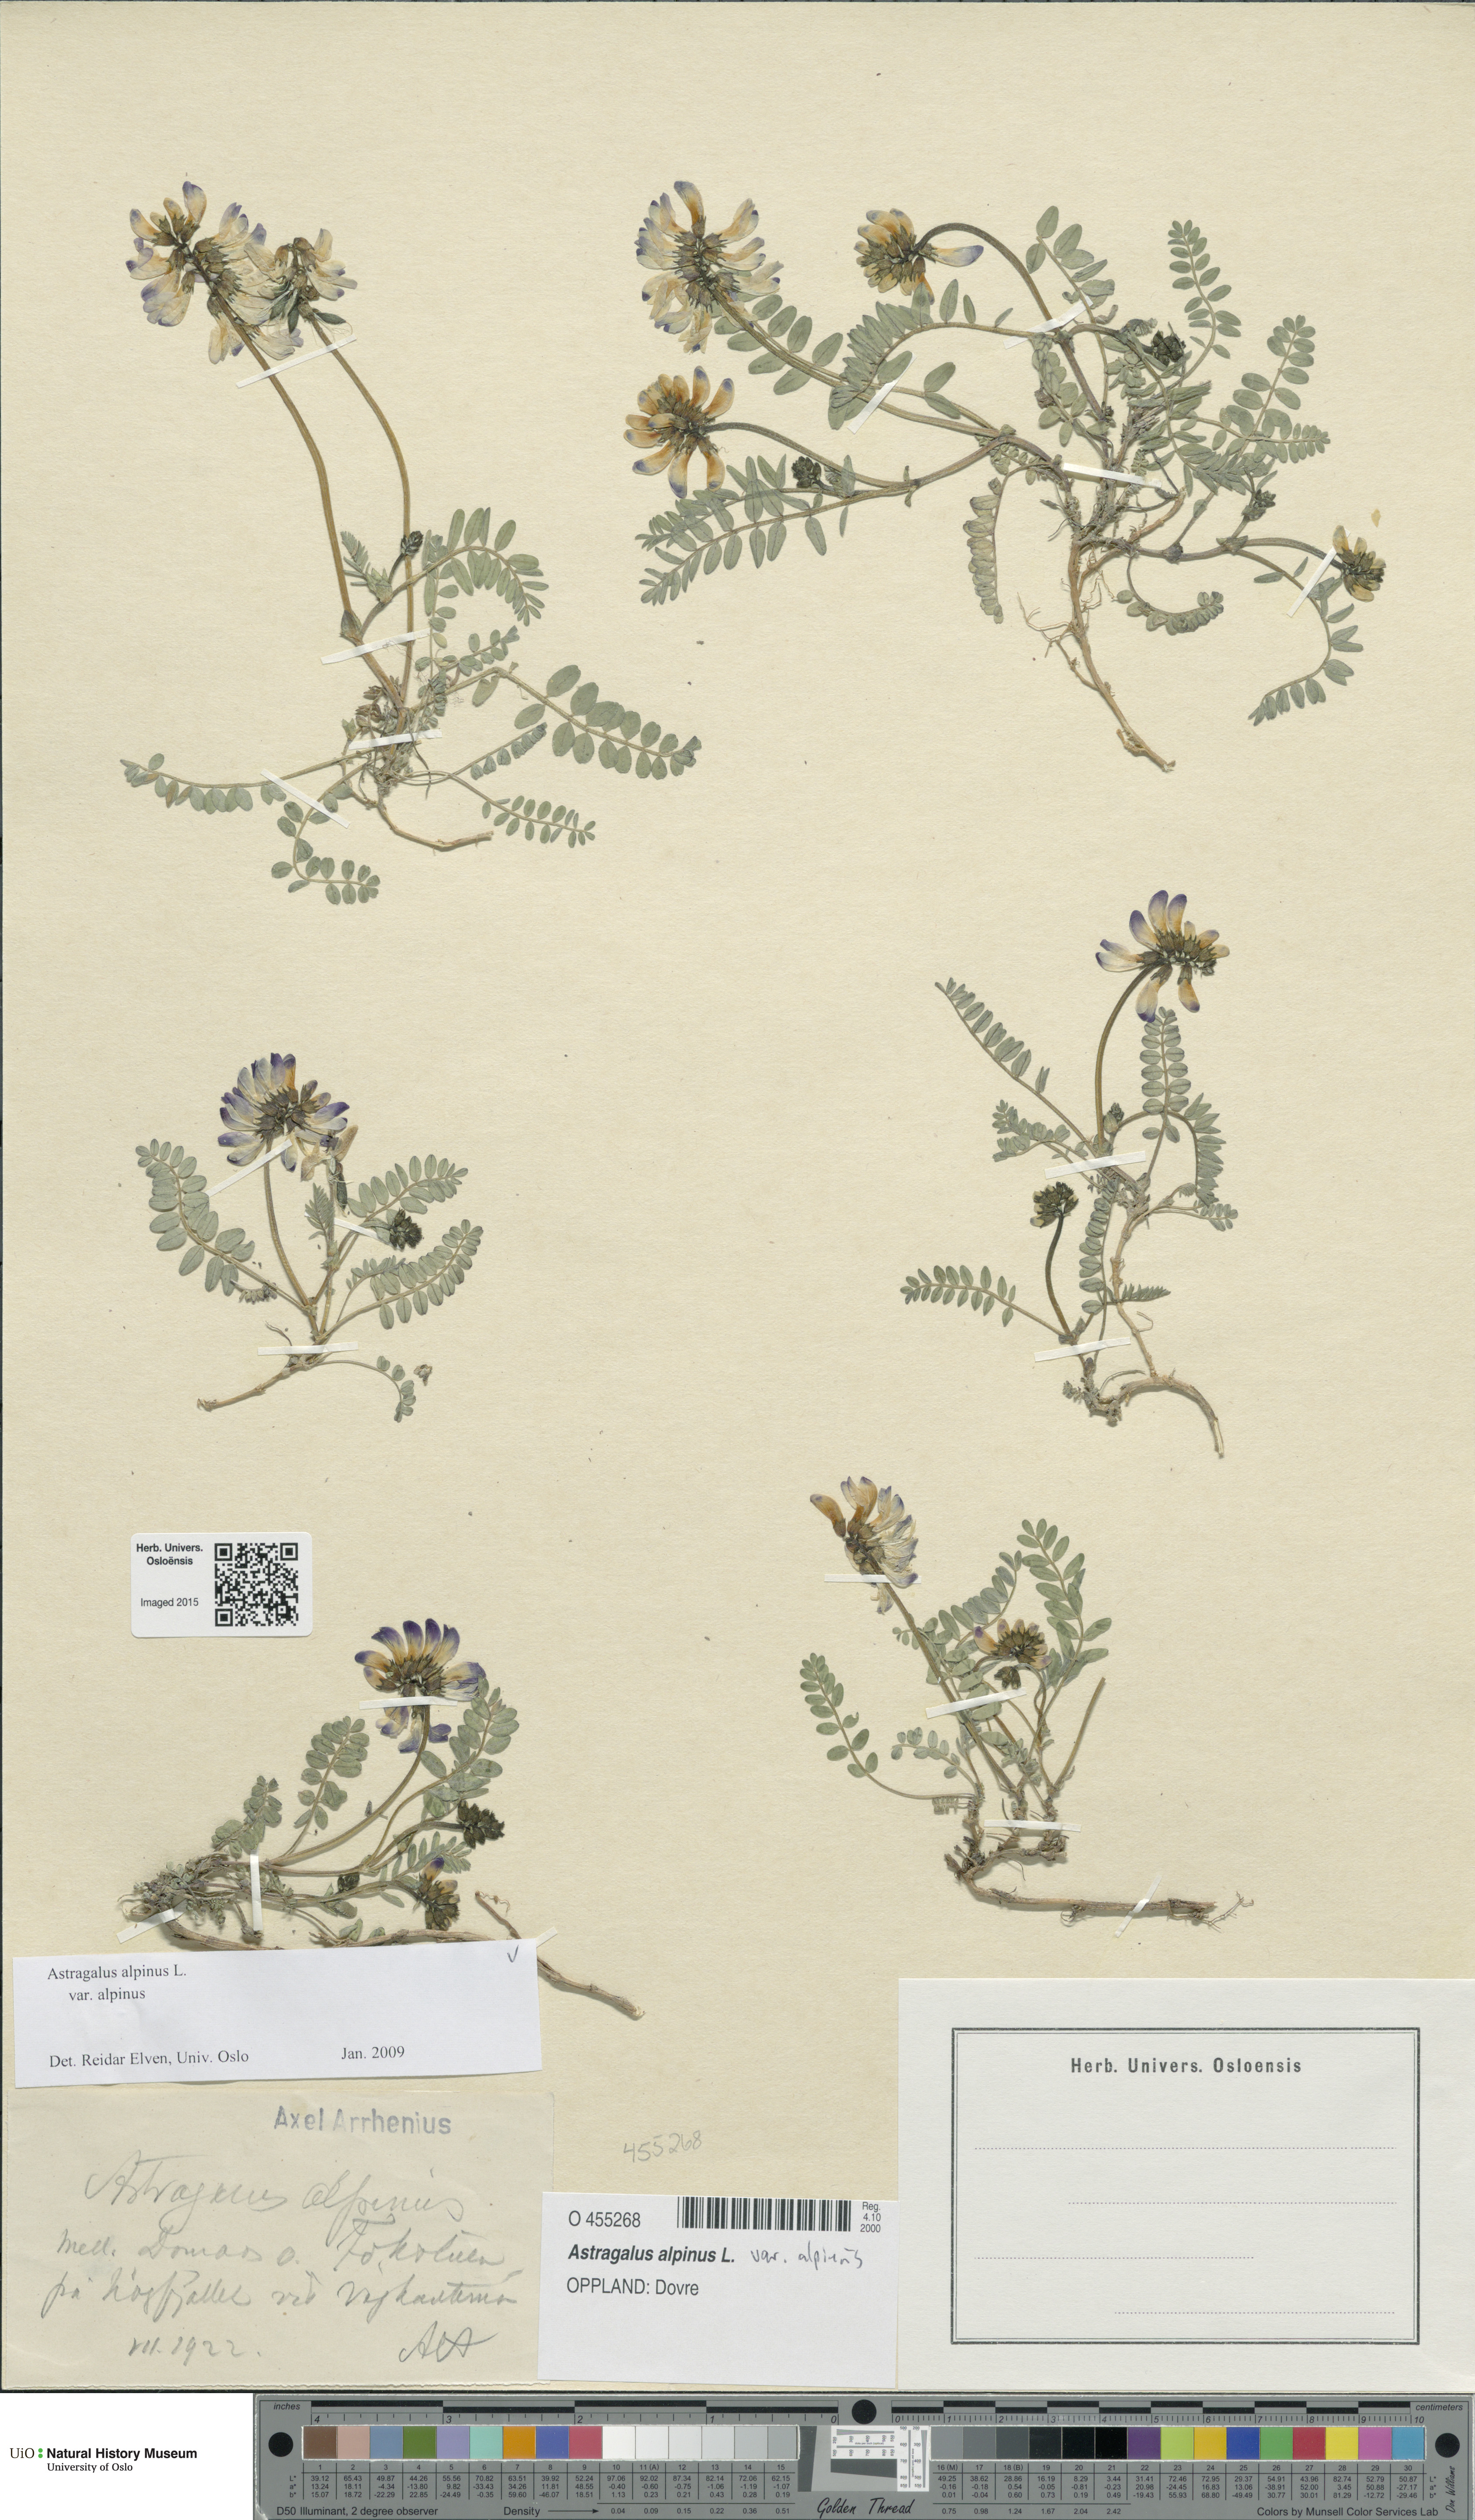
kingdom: Plantae
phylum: Tracheophyta
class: Magnoliopsida
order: Fabales
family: Fabaceae
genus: Astragalus
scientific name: Astragalus alpinus
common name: Alpine milk-vetch
